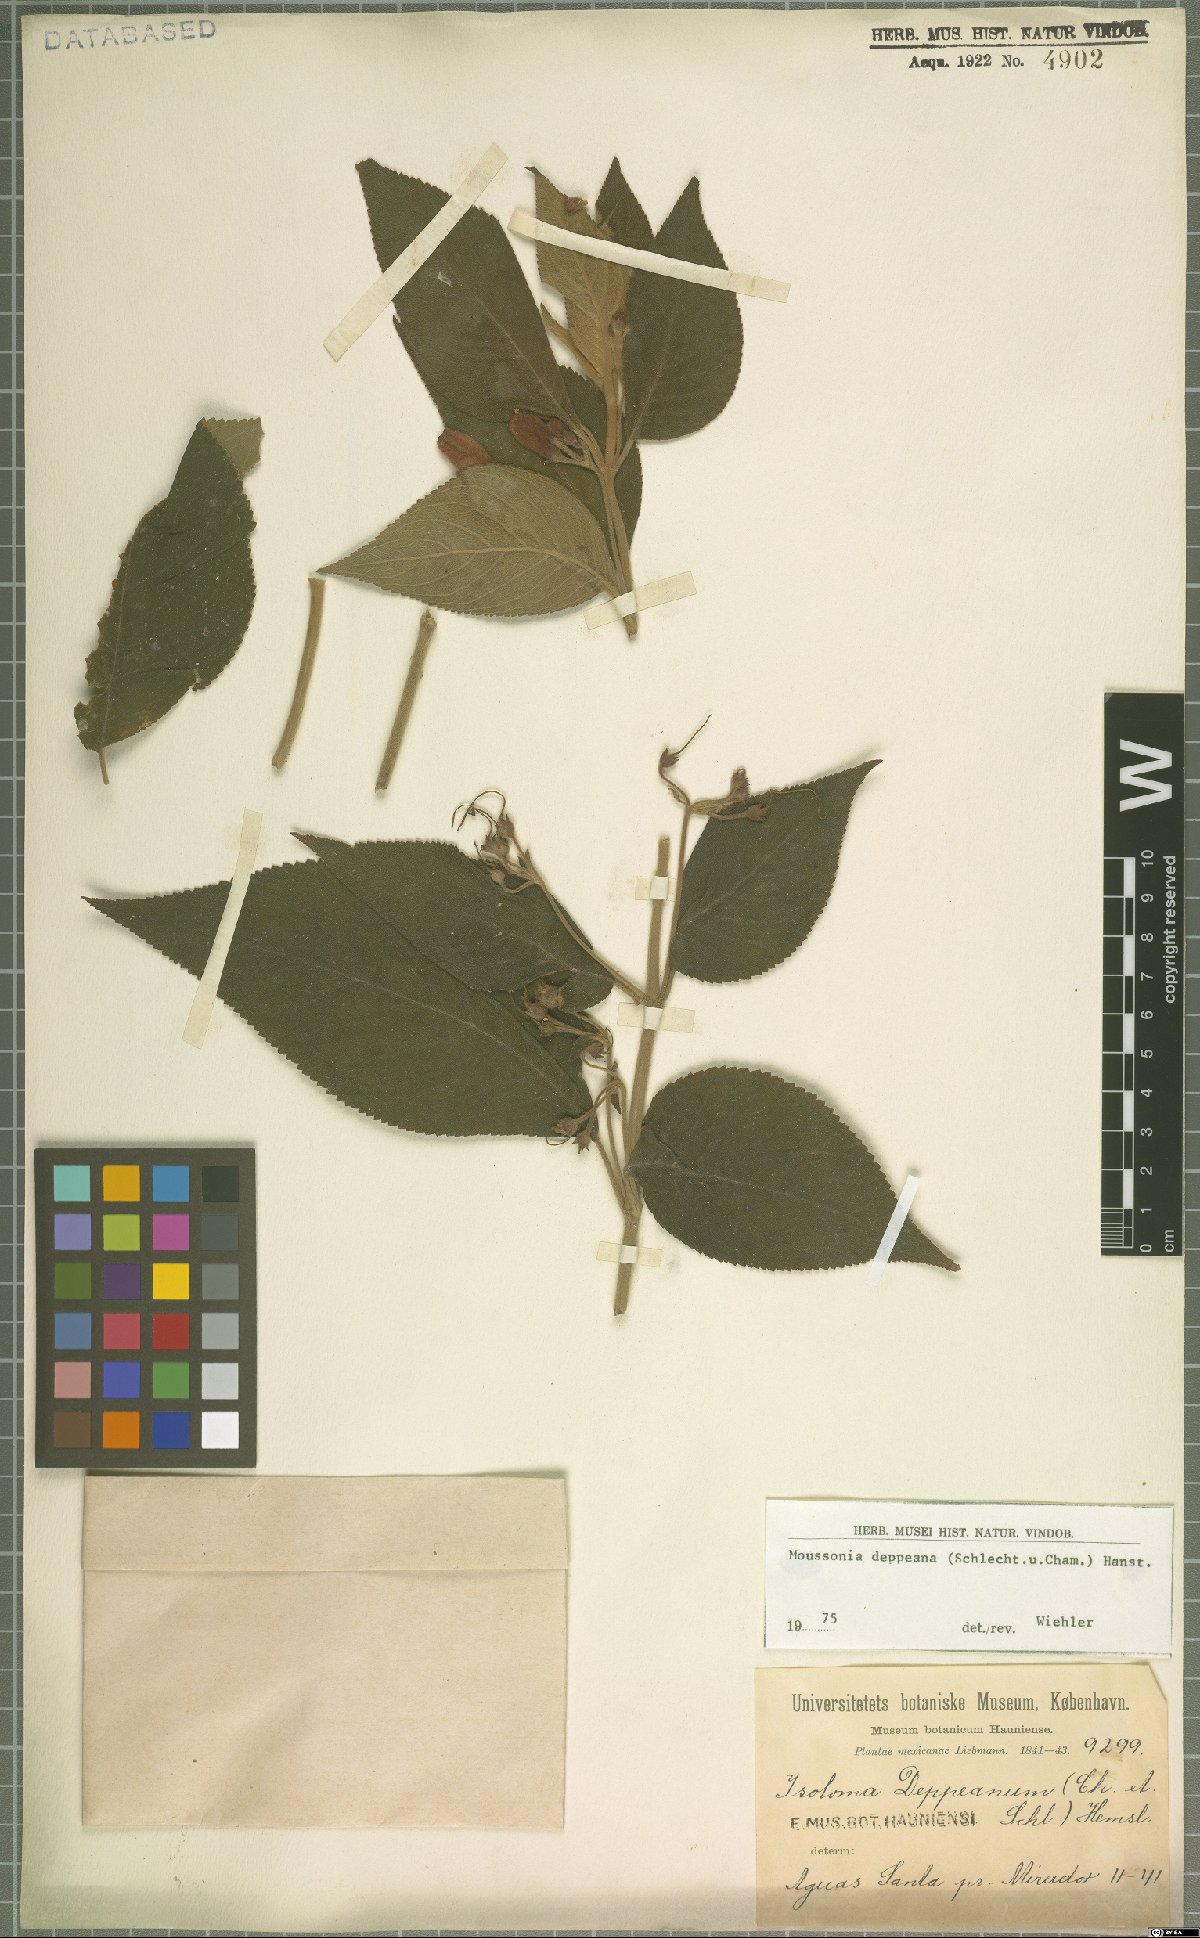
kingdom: Plantae
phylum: Tracheophyta
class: Magnoliopsida
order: Lamiales
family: Gesneriaceae
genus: Moussonia
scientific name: Moussonia deppeana
